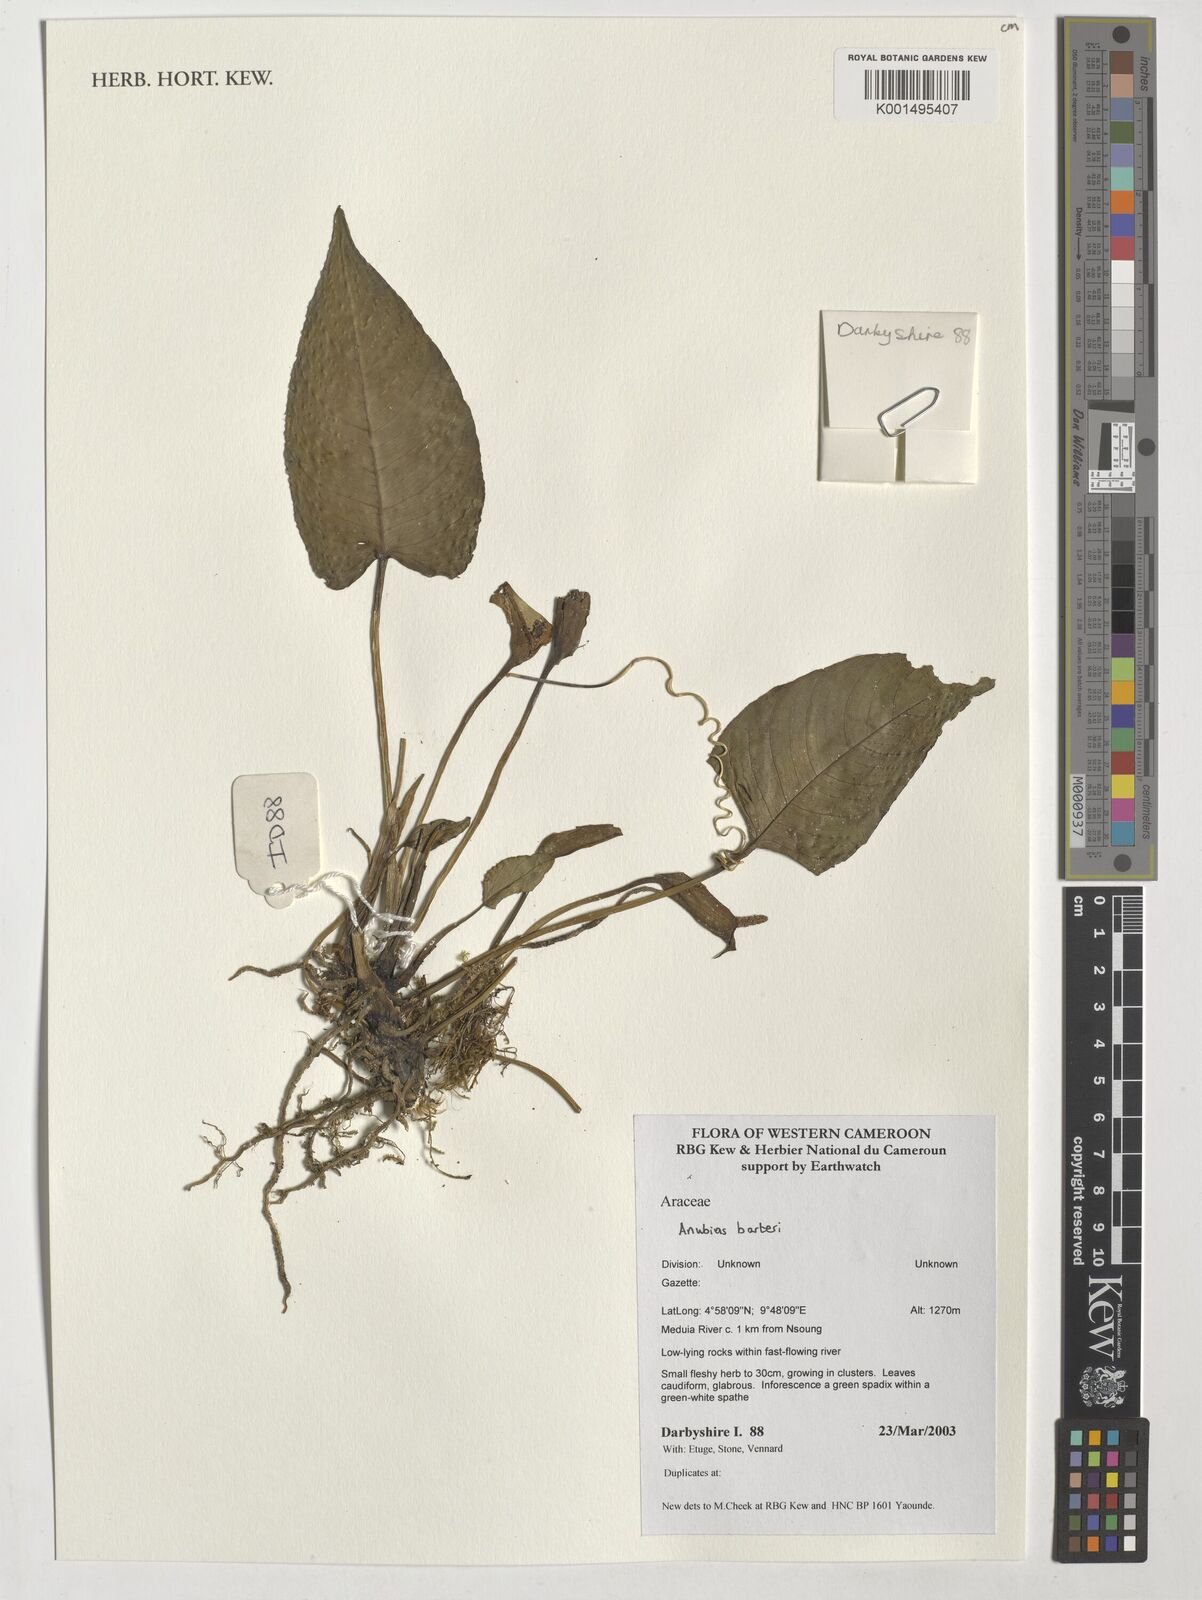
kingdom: Plantae
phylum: Tracheophyta
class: Liliopsida
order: Alismatales
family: Araceae
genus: Anubias
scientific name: Anubias barteri
